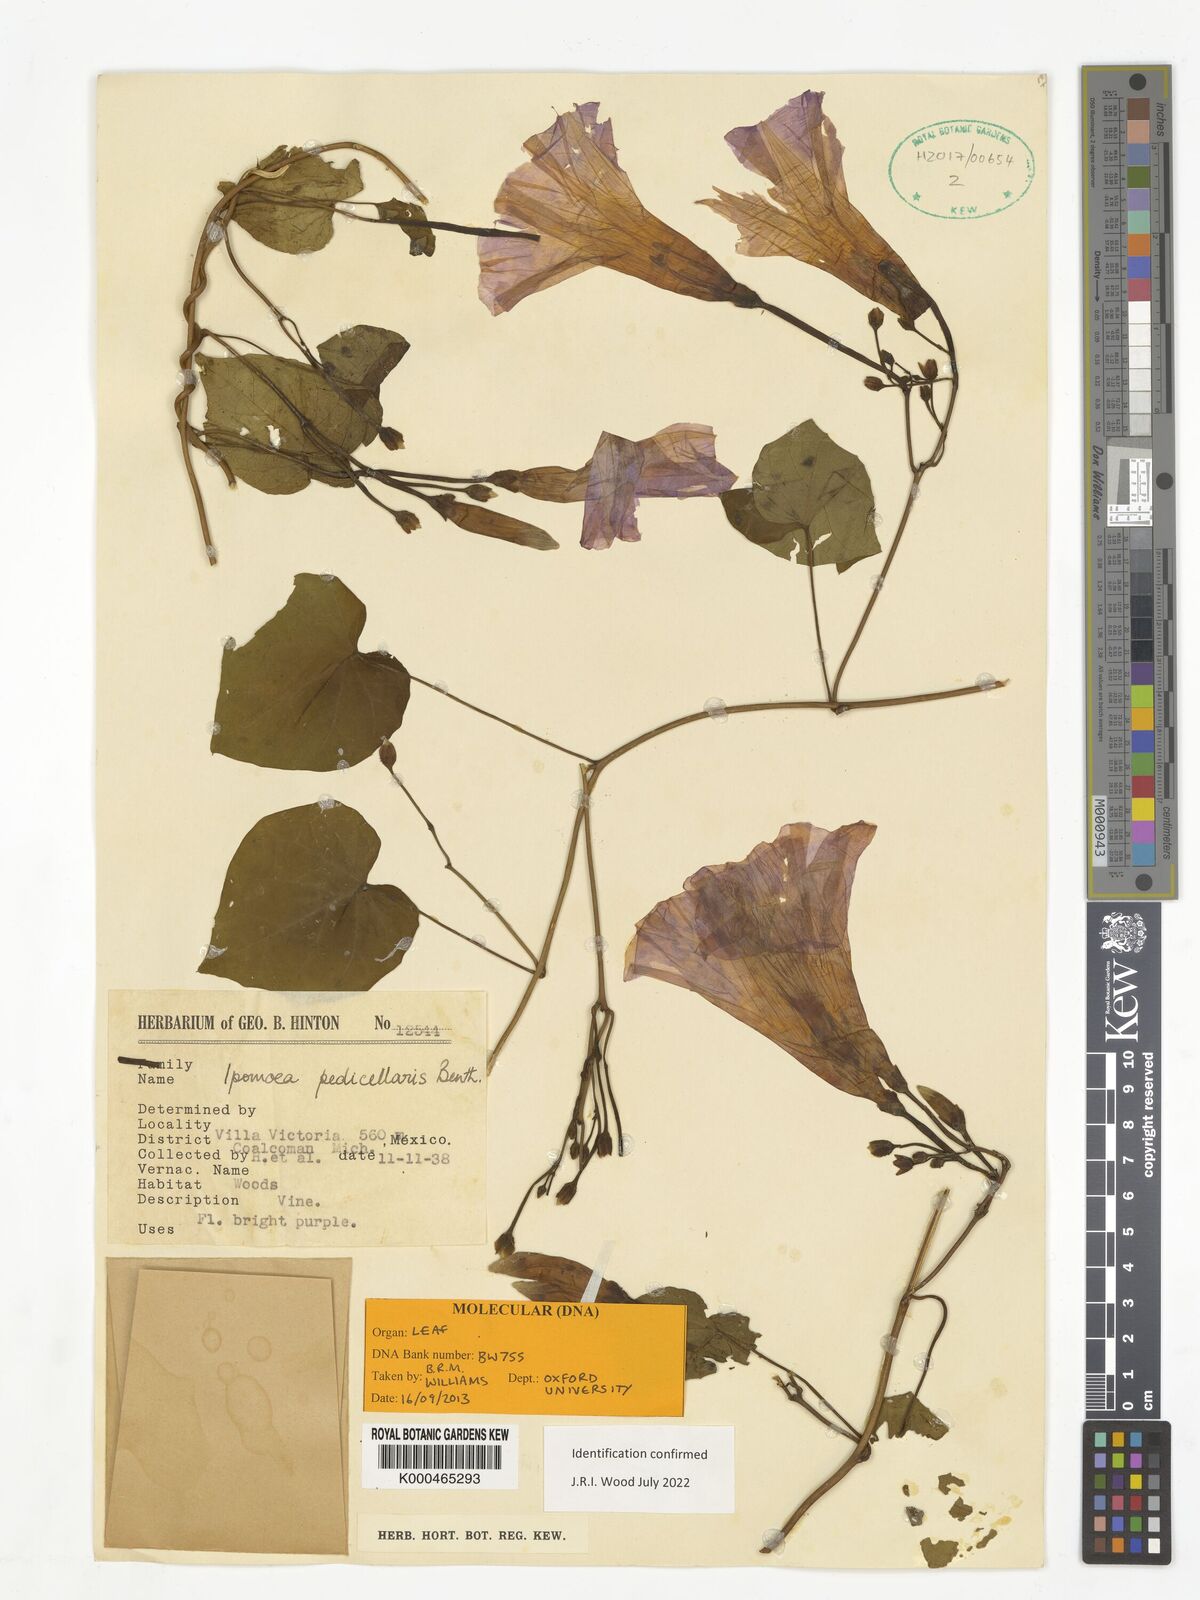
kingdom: Plantae
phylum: Tracheophyta
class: Magnoliopsida
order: Solanales
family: Convolvulaceae
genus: Ipomoea
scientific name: Ipomoea pedicellaris
